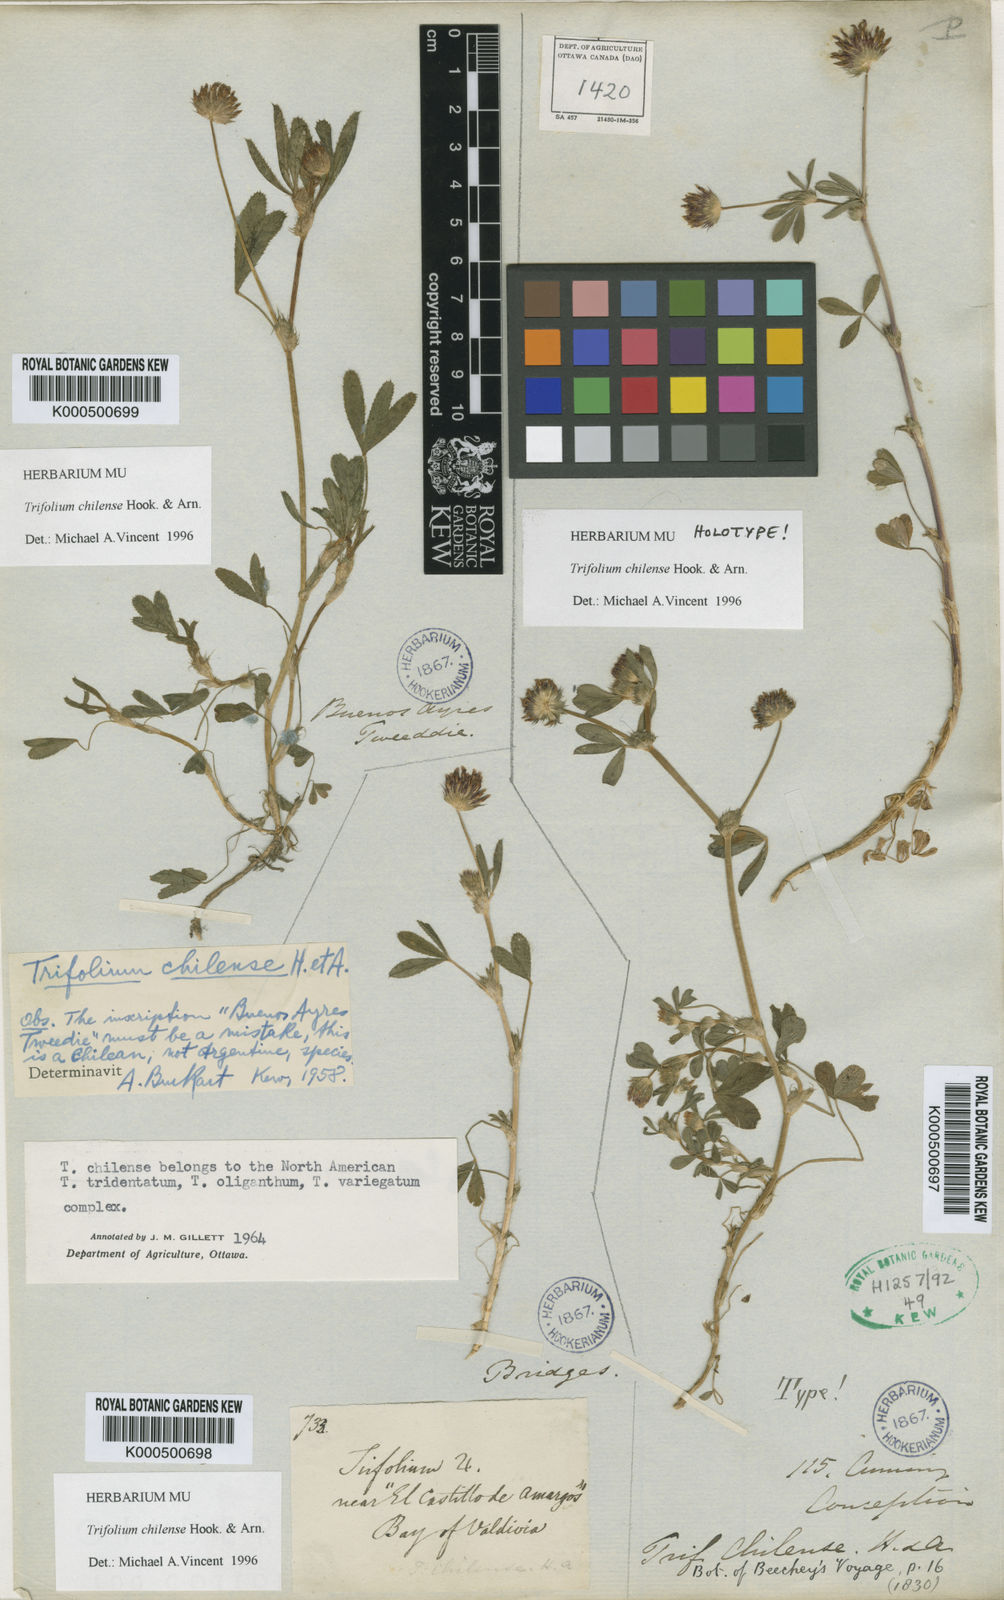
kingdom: Plantae
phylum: Tracheophyta
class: Magnoliopsida
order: Fabales
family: Fabaceae
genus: Trifolium
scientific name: Trifolium chilense
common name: Chilean clover
